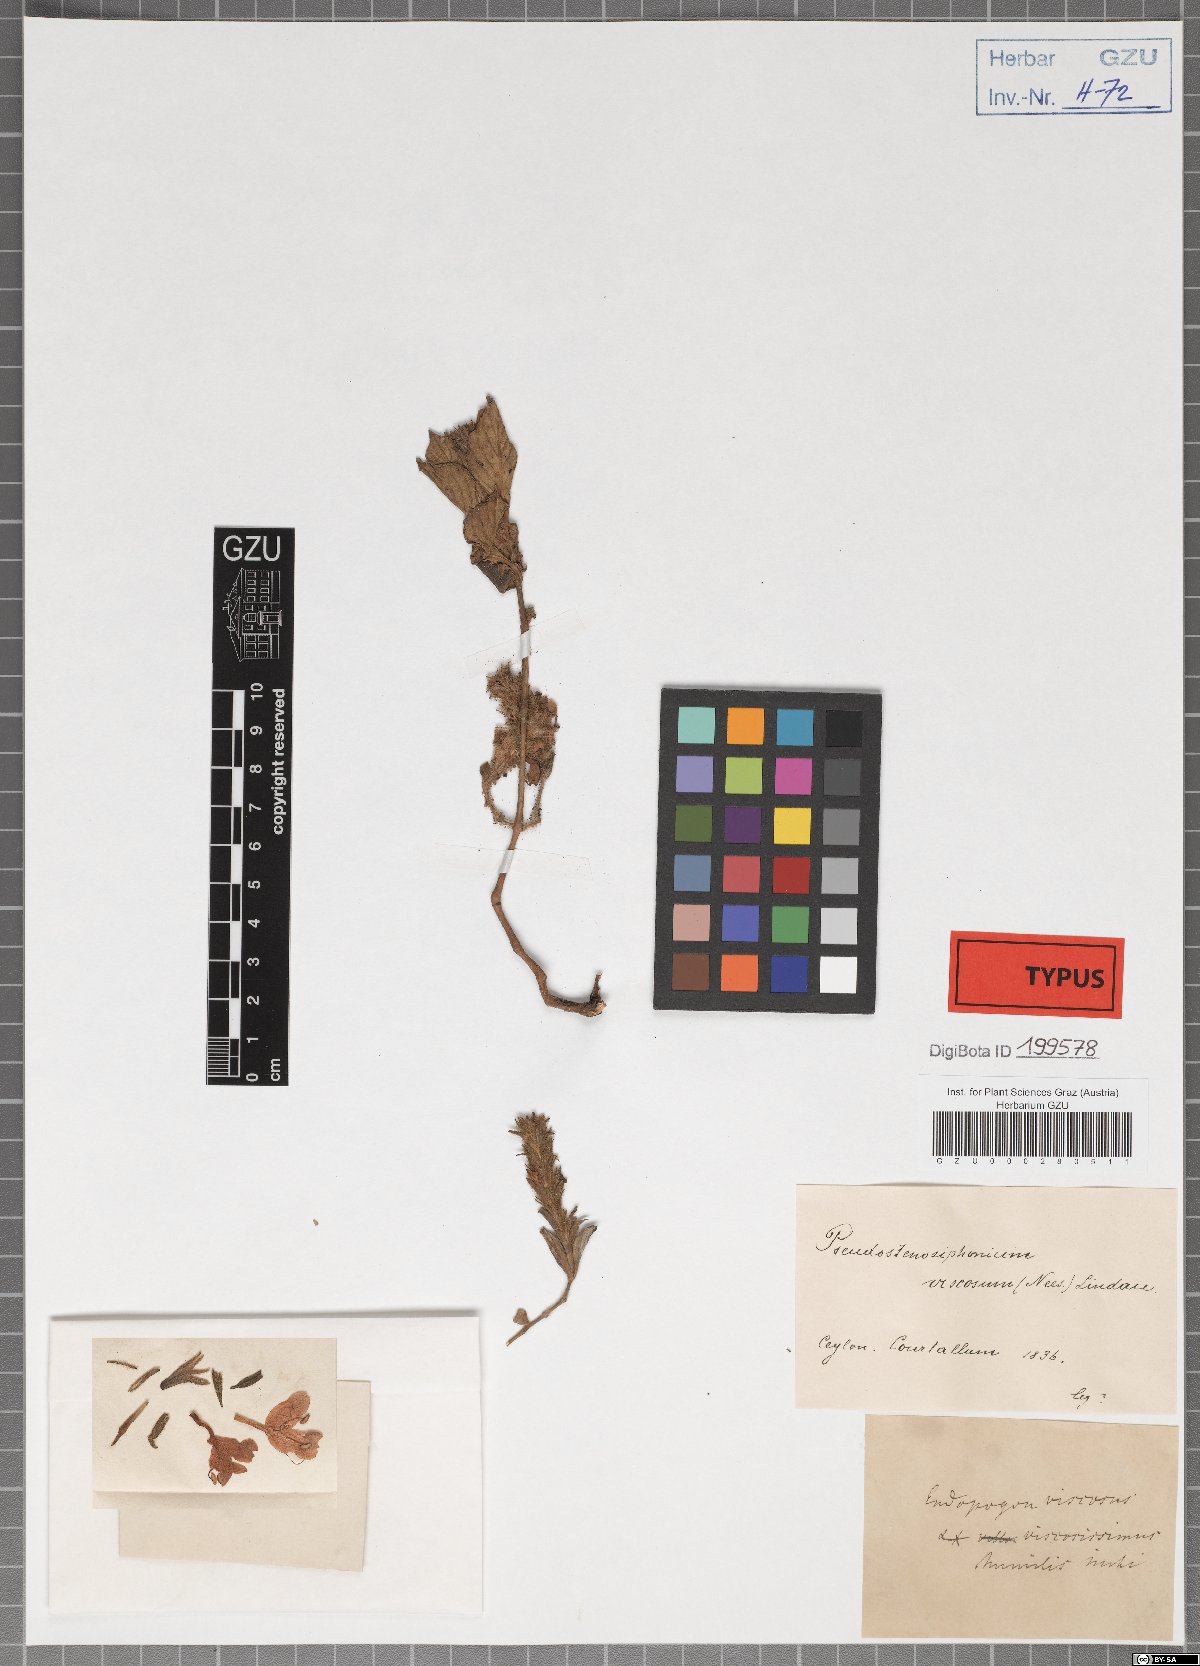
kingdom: Plantae
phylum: Tracheophyta
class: Magnoliopsida
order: Lamiales
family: Acanthaceae
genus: Strobilanthes
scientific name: Strobilanthes humilis
